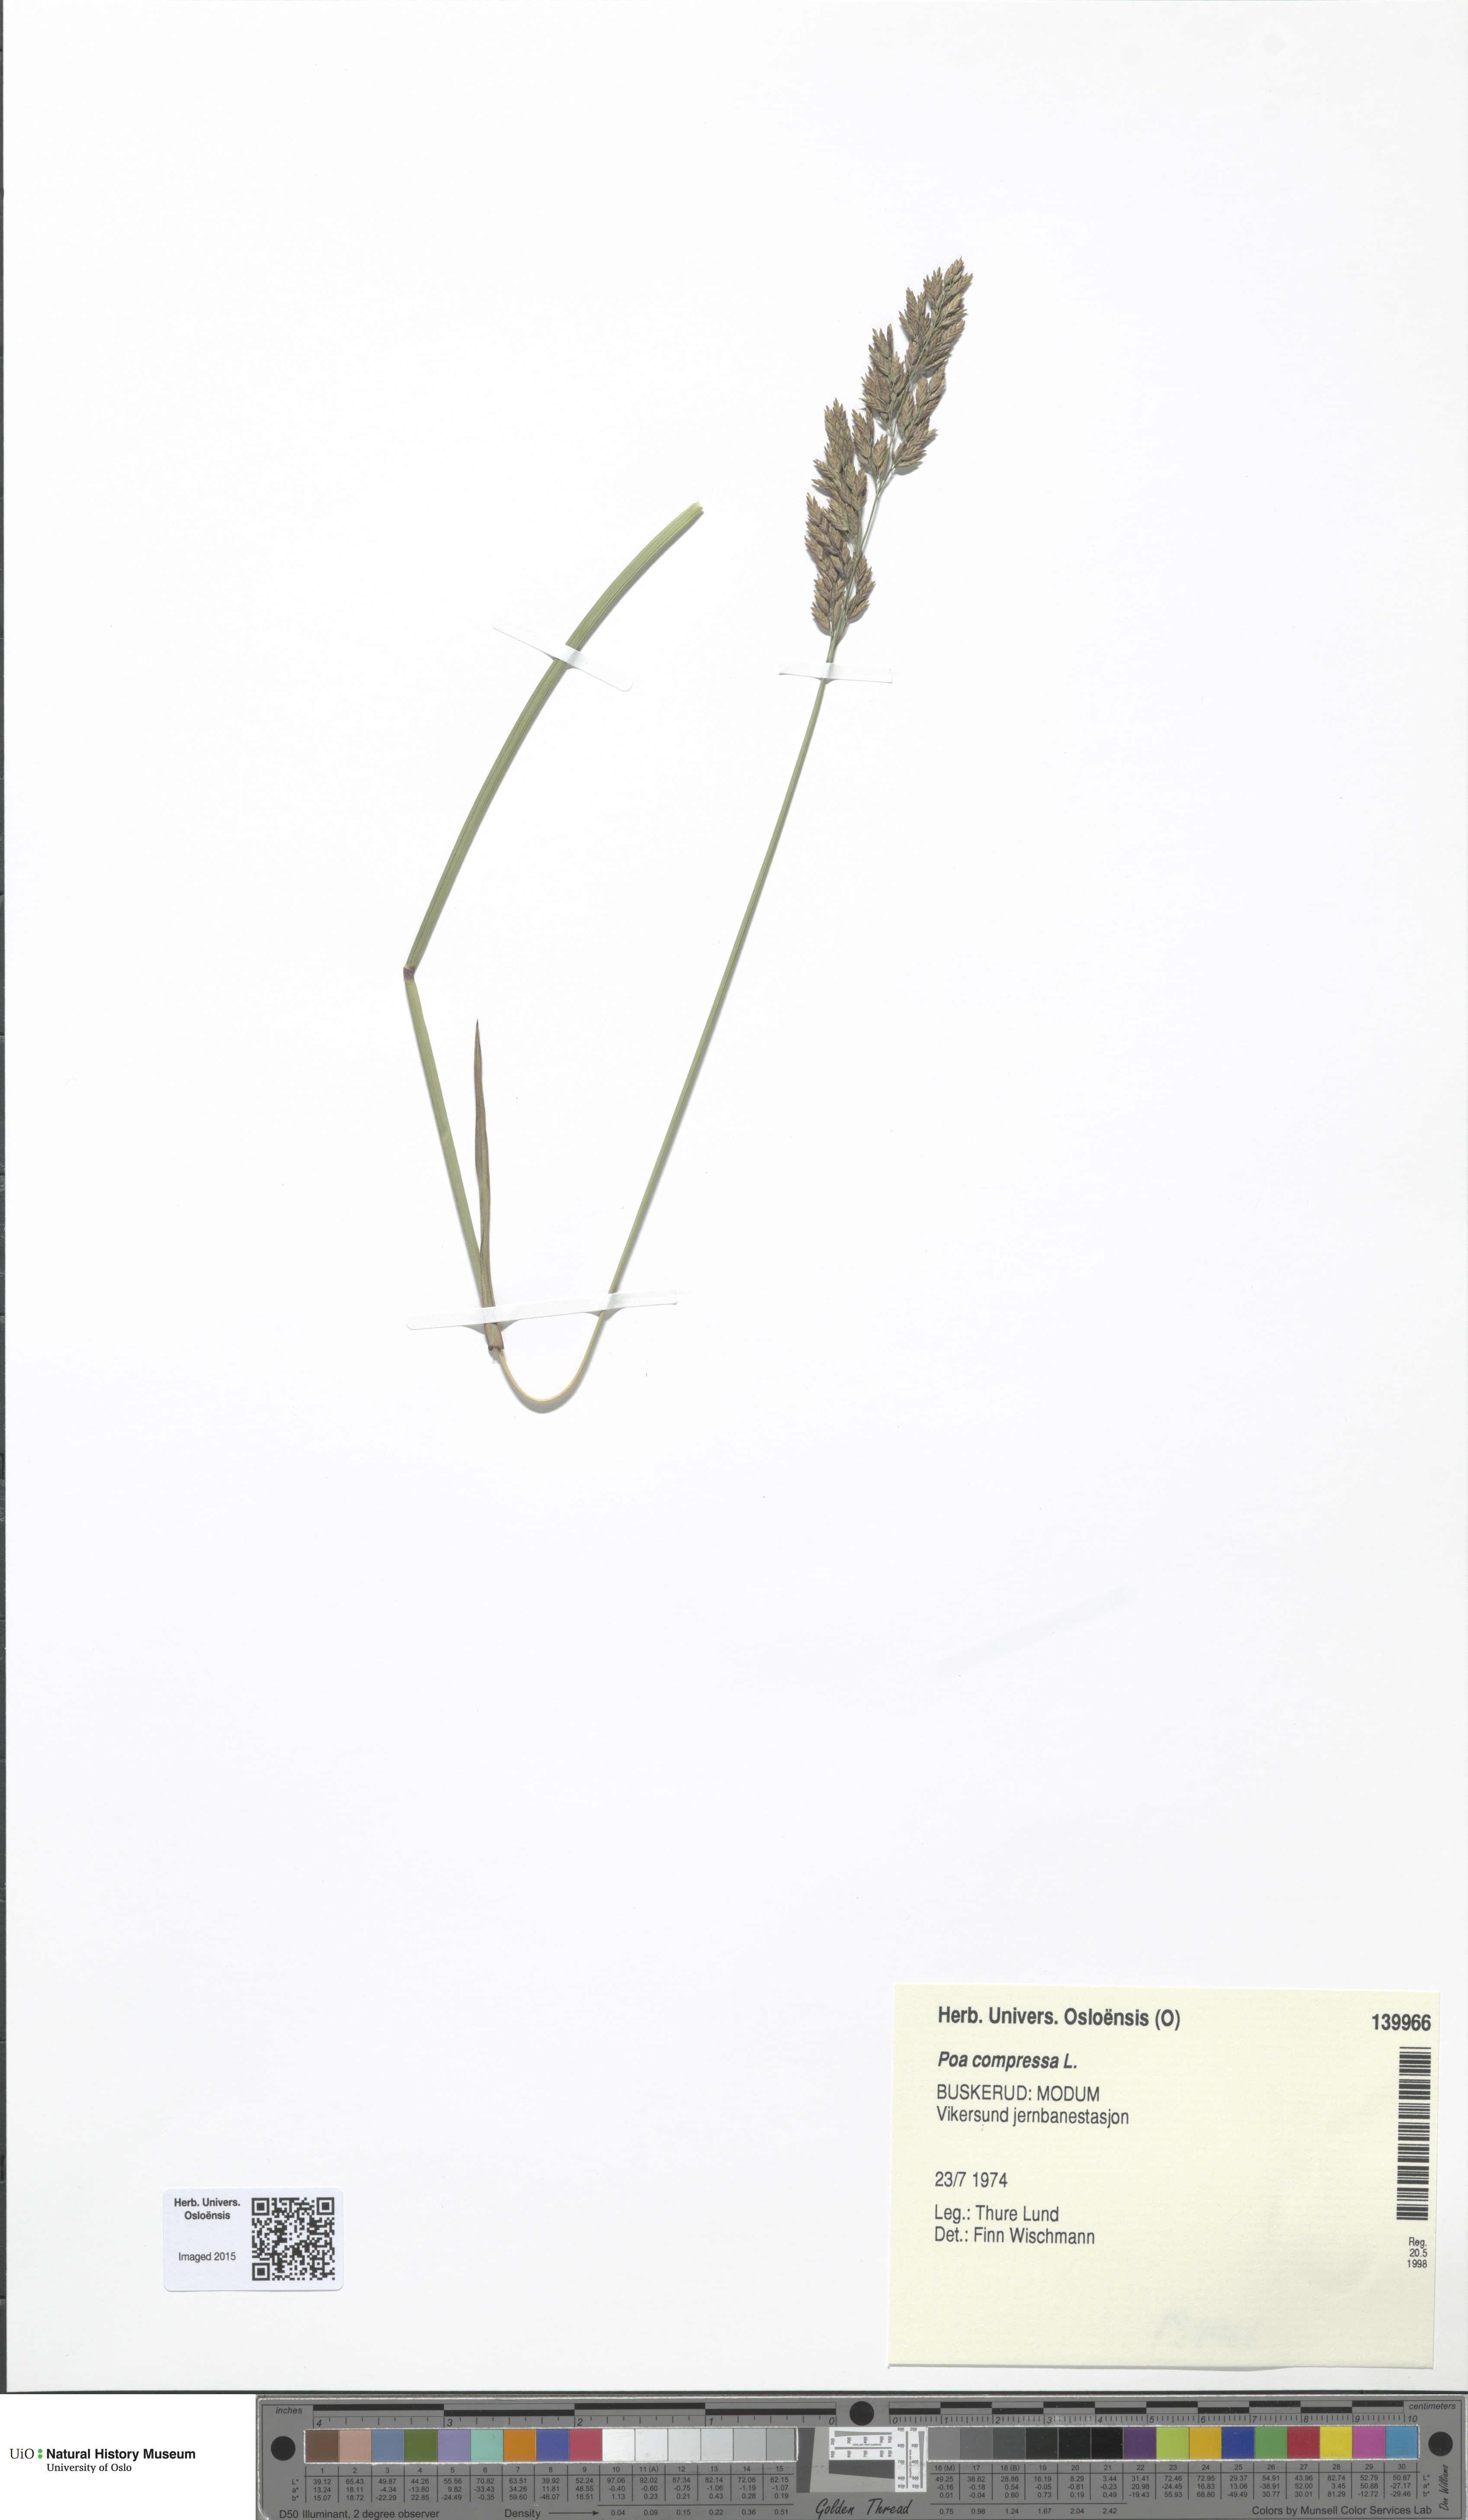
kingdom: Plantae
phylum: Tracheophyta
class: Liliopsida
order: Poales
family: Poaceae
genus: Poa
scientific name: Poa compressa
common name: Canada bluegrass
